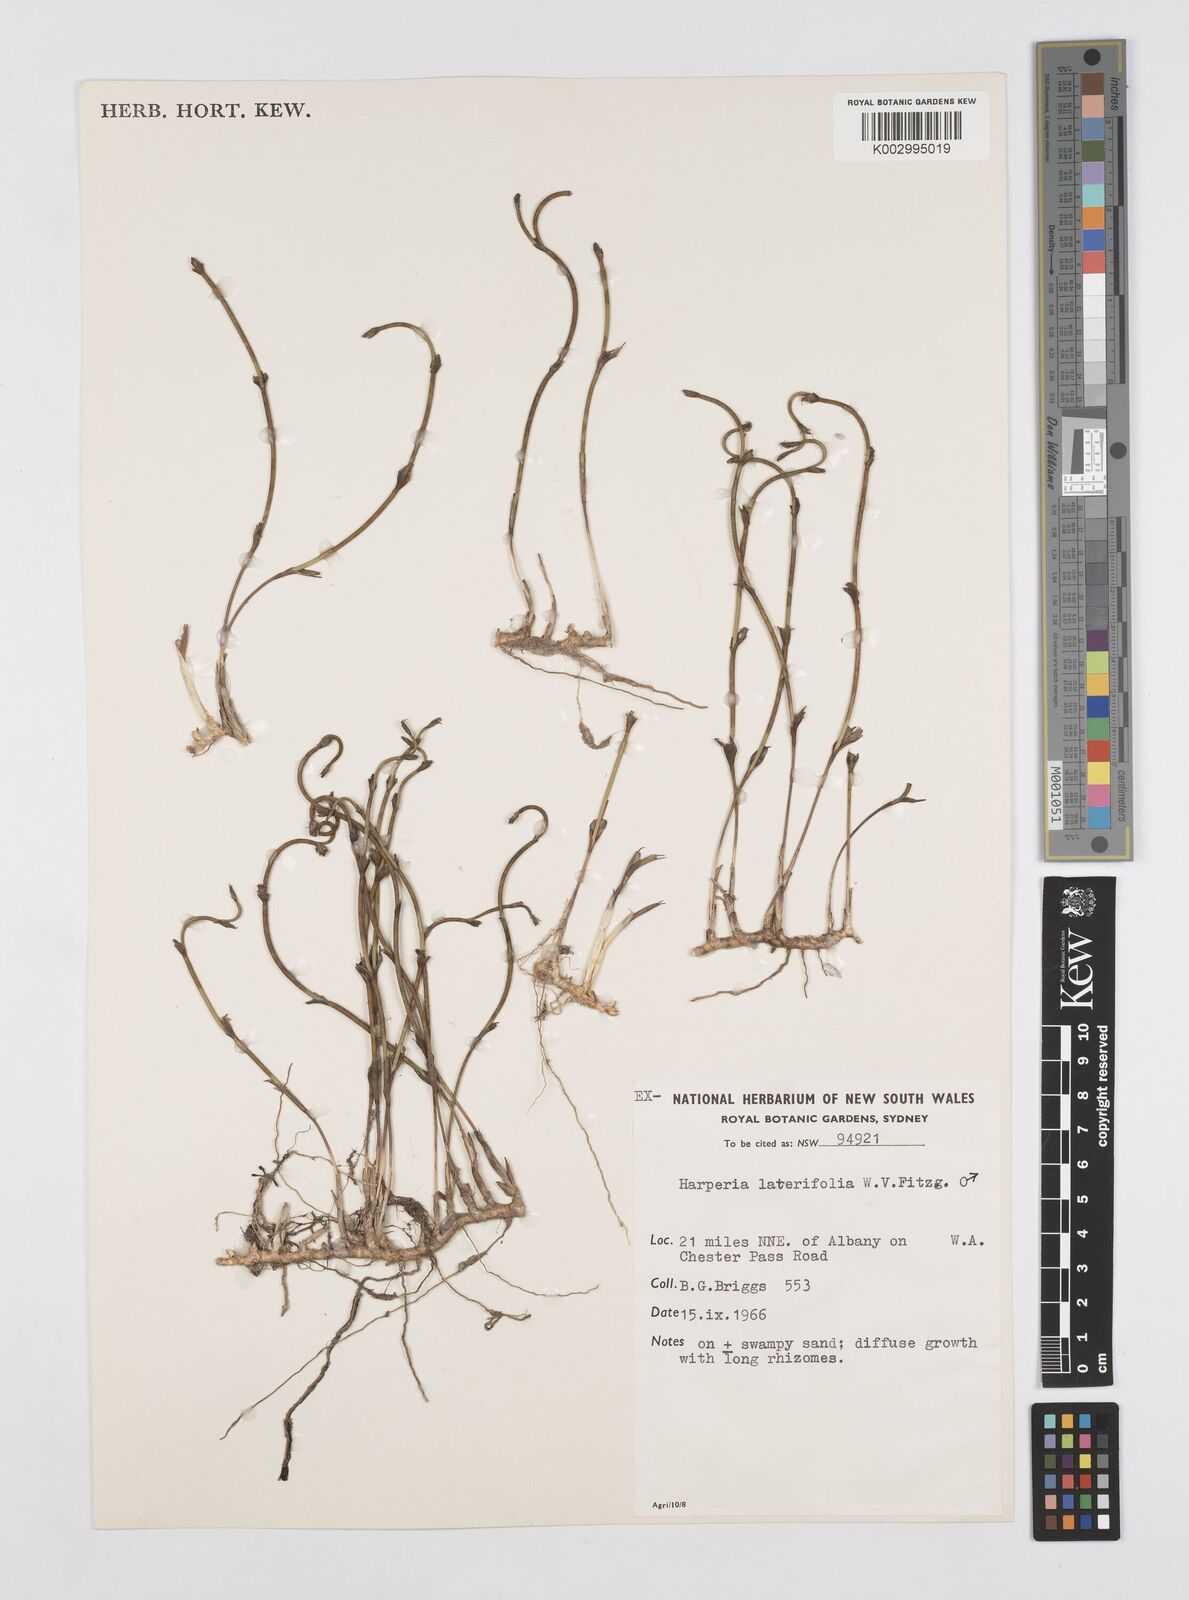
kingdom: Plantae
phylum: Tracheophyta
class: Liliopsida
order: Poales
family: Restionaceae
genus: Desmocladus
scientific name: Desmocladus lateriflorus
